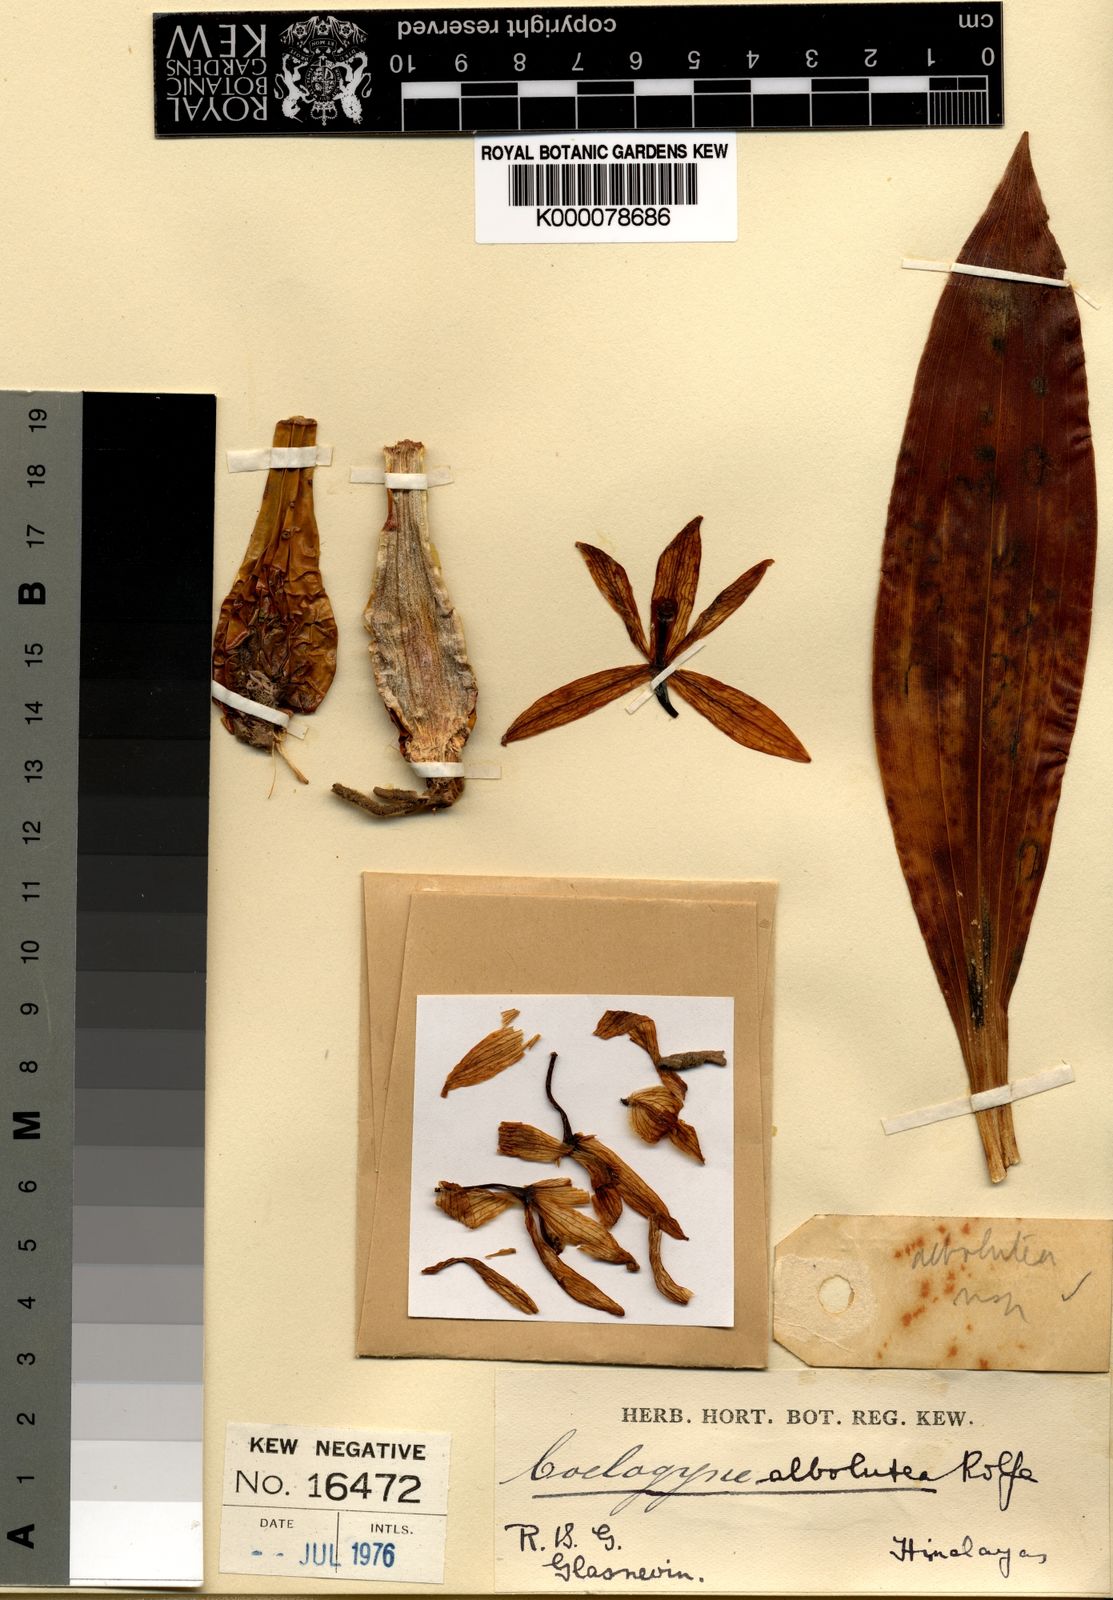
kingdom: Plantae
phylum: Tracheophyta
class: Liliopsida
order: Asparagales
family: Orchidaceae
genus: Coelogyne
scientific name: Coelogyne albolutea
